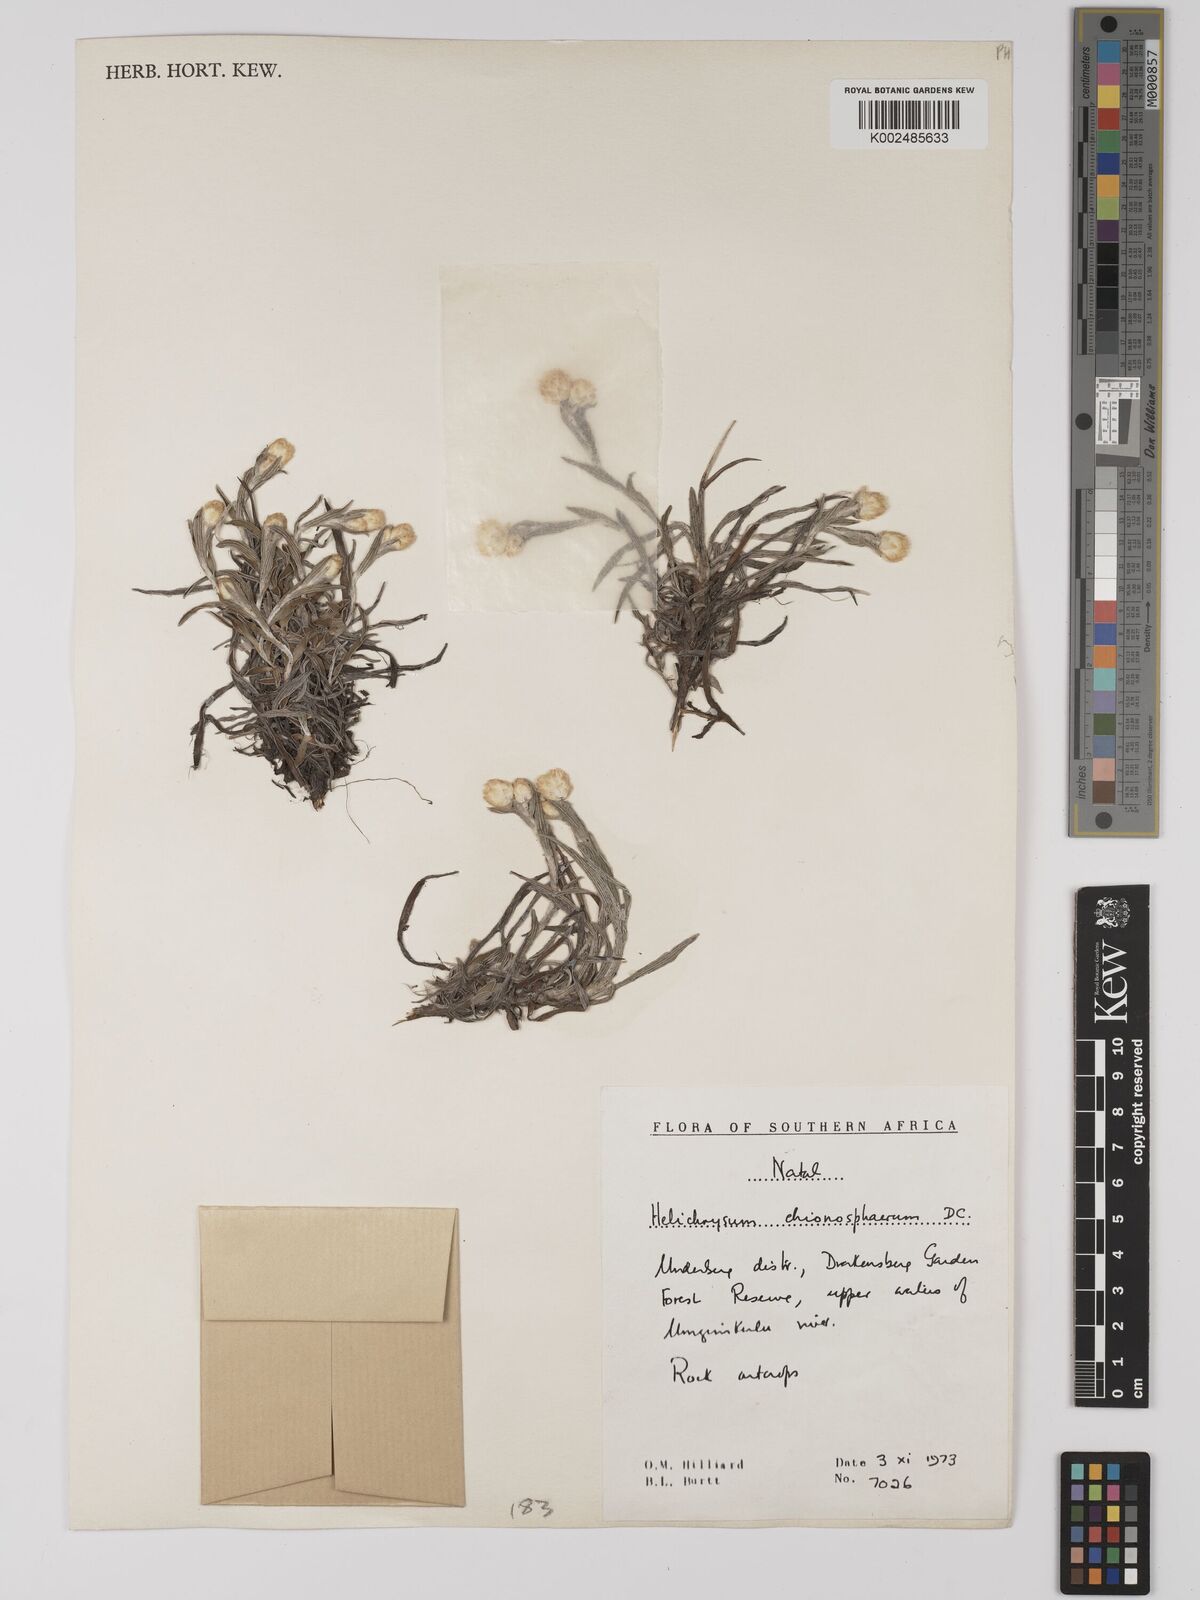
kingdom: Plantae
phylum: Tracheophyta
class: Magnoliopsida
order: Asterales
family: Asteraceae
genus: Helichrysum
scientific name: Helichrysum chionosphaerum
